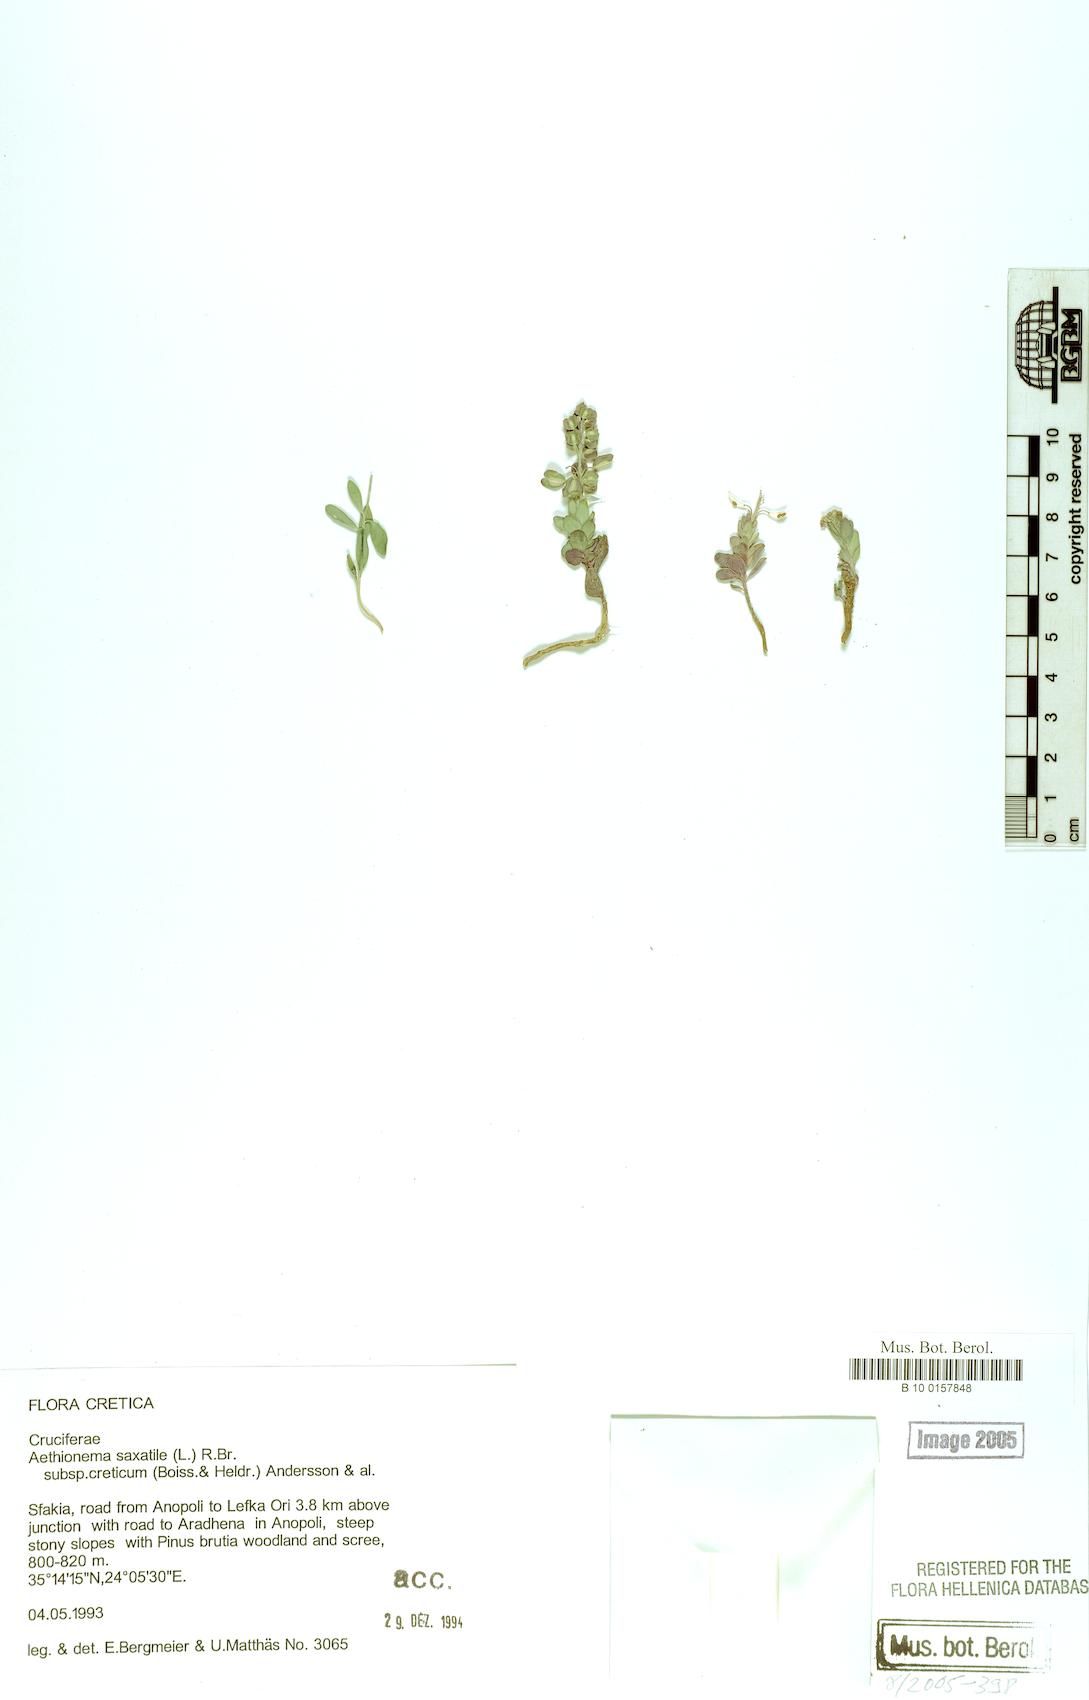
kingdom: Plantae
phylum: Tracheophyta
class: Magnoliopsida
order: Brassicales
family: Brassicaceae
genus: Aethionema
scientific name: Aethionema saxatile
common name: Burnt candytuft
